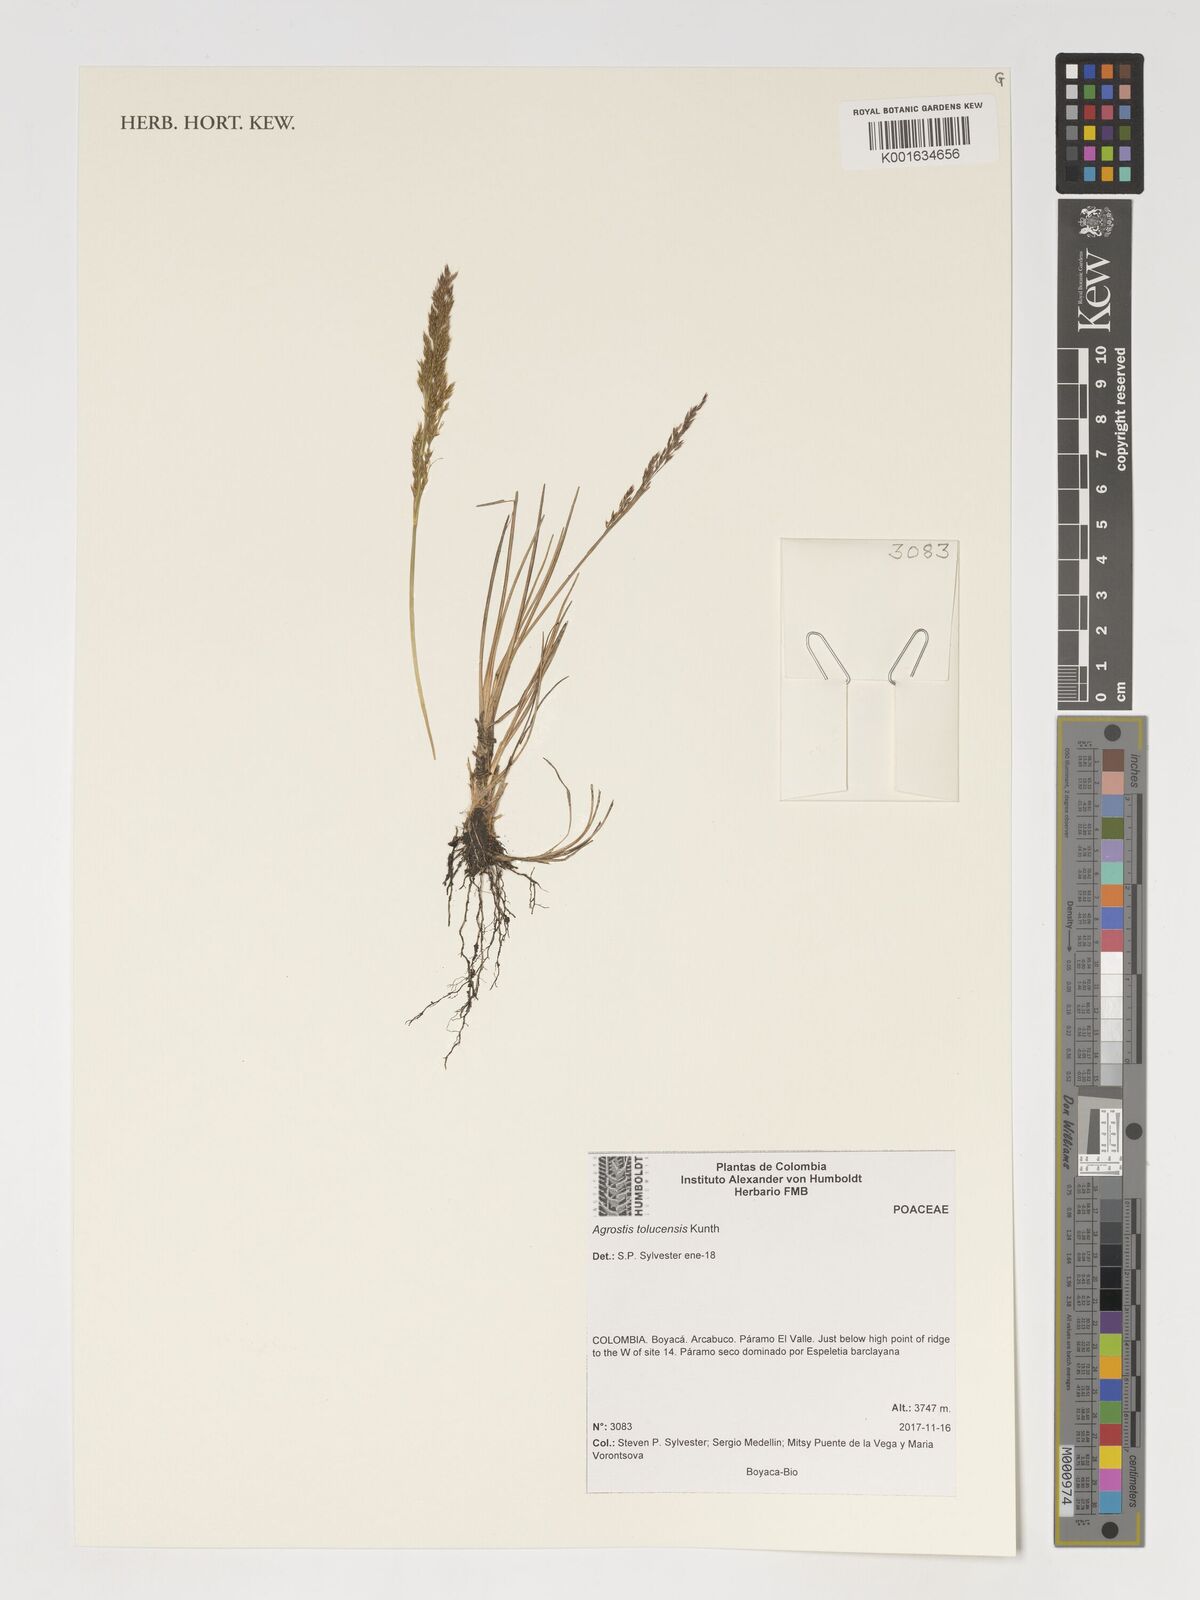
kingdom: Plantae
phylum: Tracheophyta
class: Liliopsida
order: Poales
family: Poaceae
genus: Agrostis
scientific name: Agrostis tolucensis
